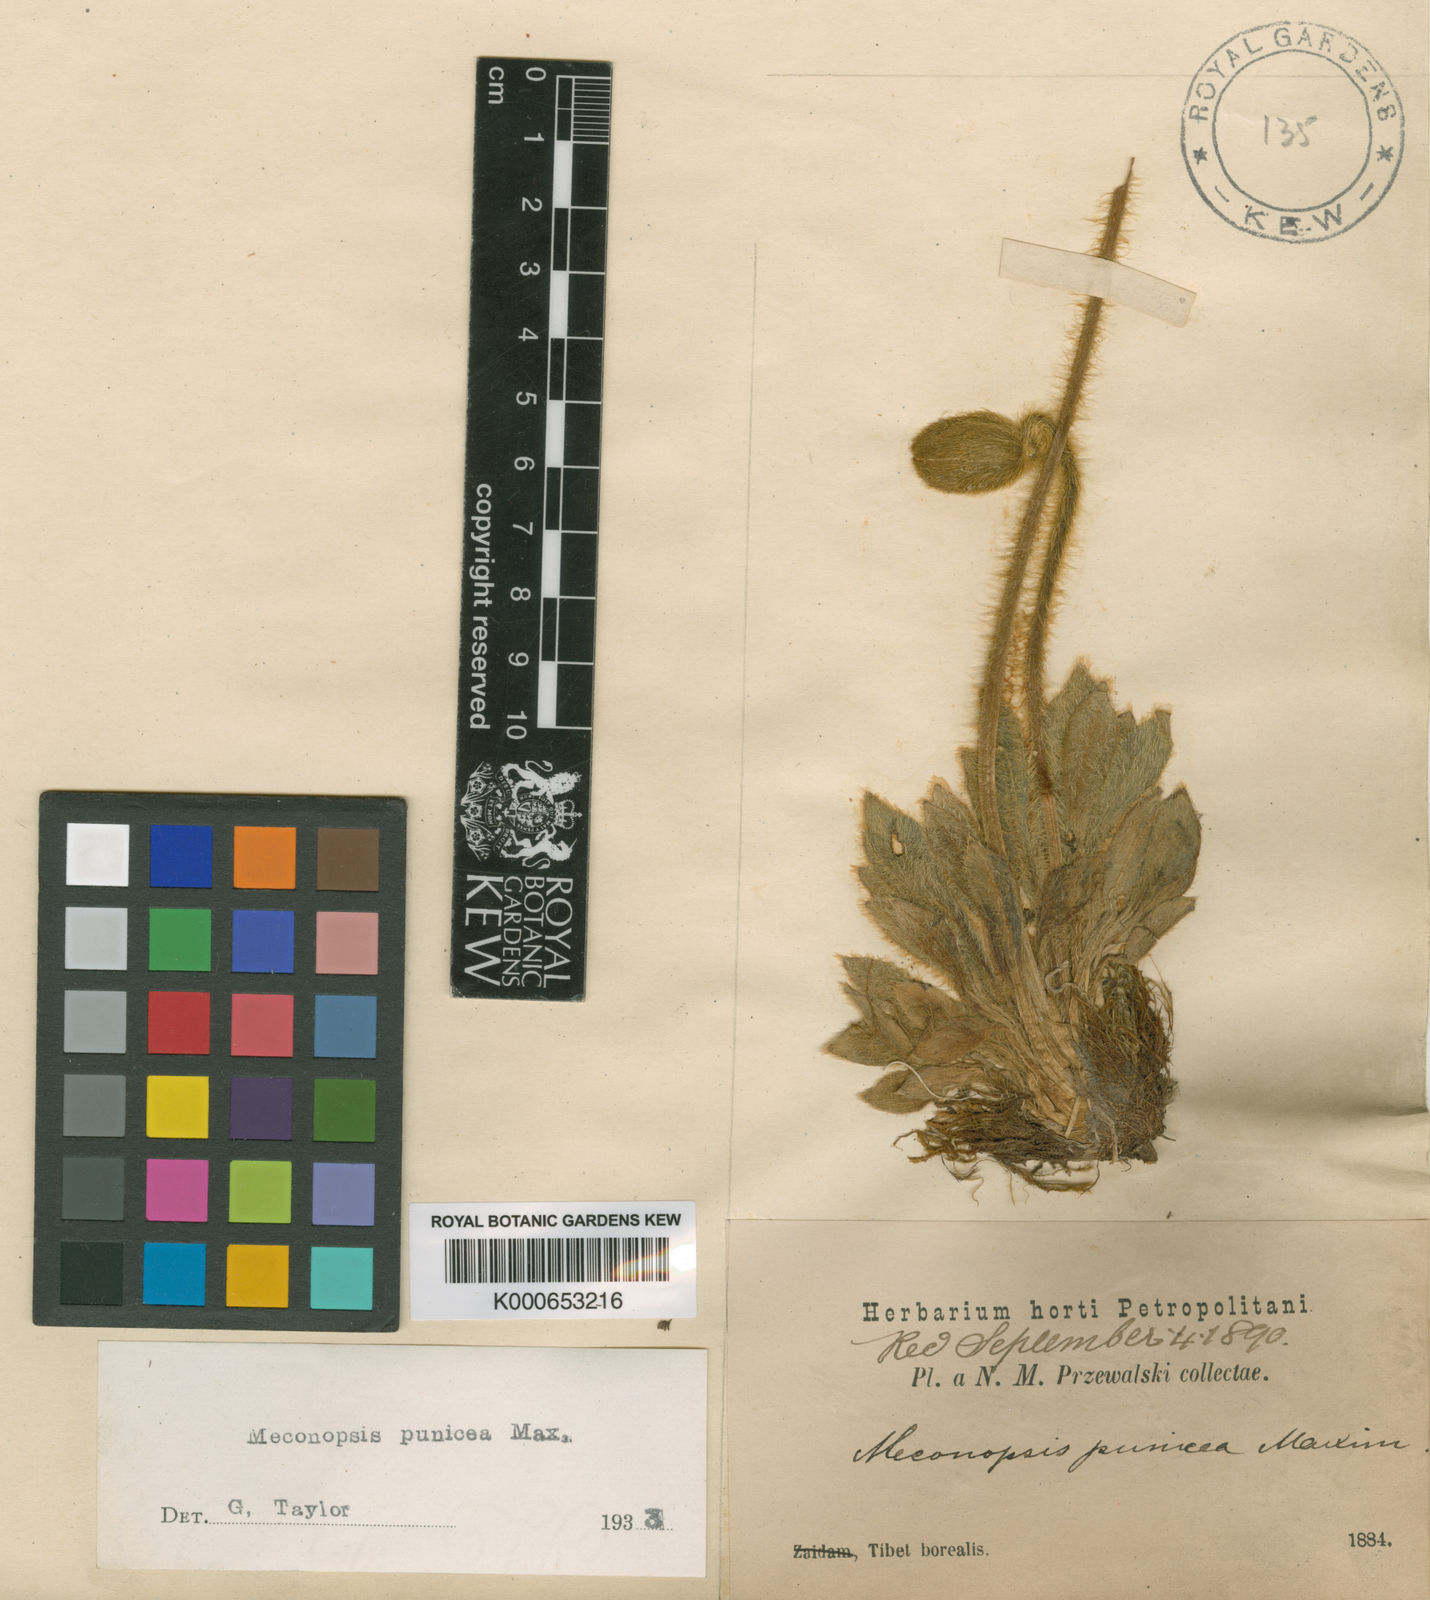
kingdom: Plantae
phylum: Tracheophyta
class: Magnoliopsida
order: Ranunculales
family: Papaveraceae
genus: Meconopsis
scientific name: Meconopsis punicea
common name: Red poppywort
